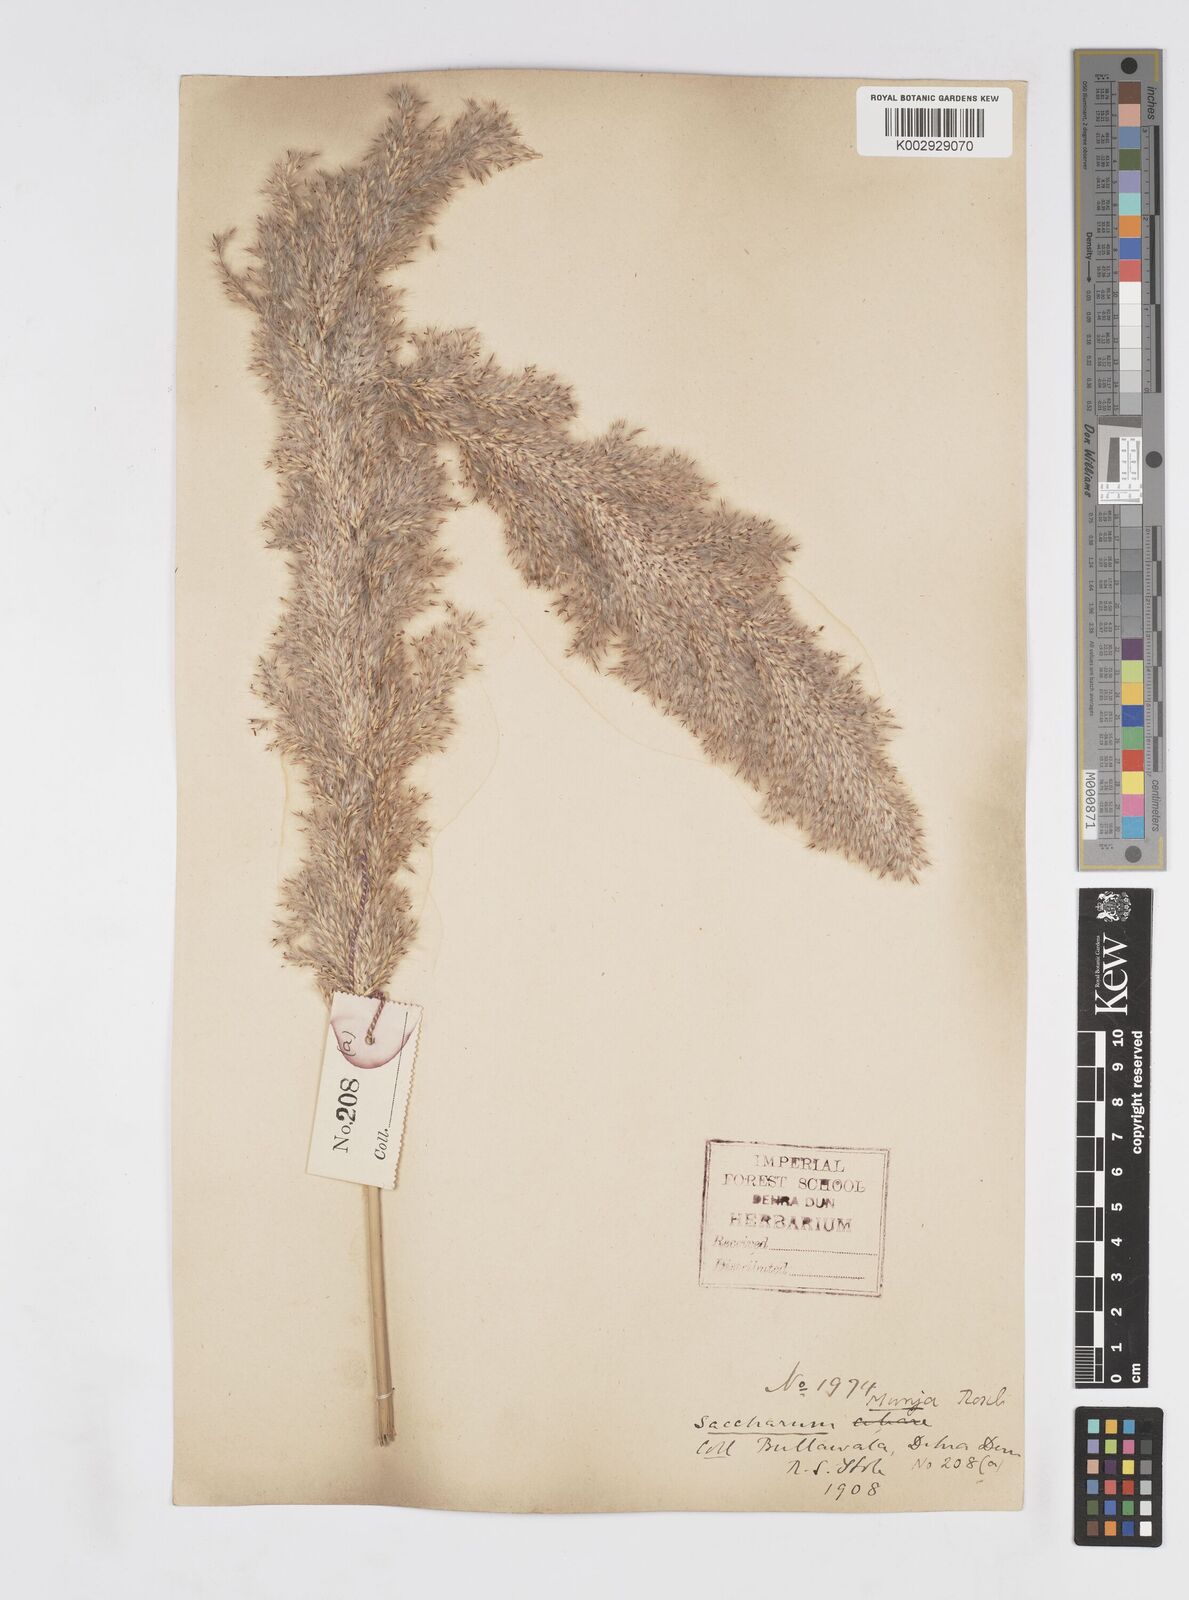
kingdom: Plantae
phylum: Tracheophyta
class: Liliopsida
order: Poales
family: Poaceae
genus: Tripidium
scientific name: Tripidium bengalense
